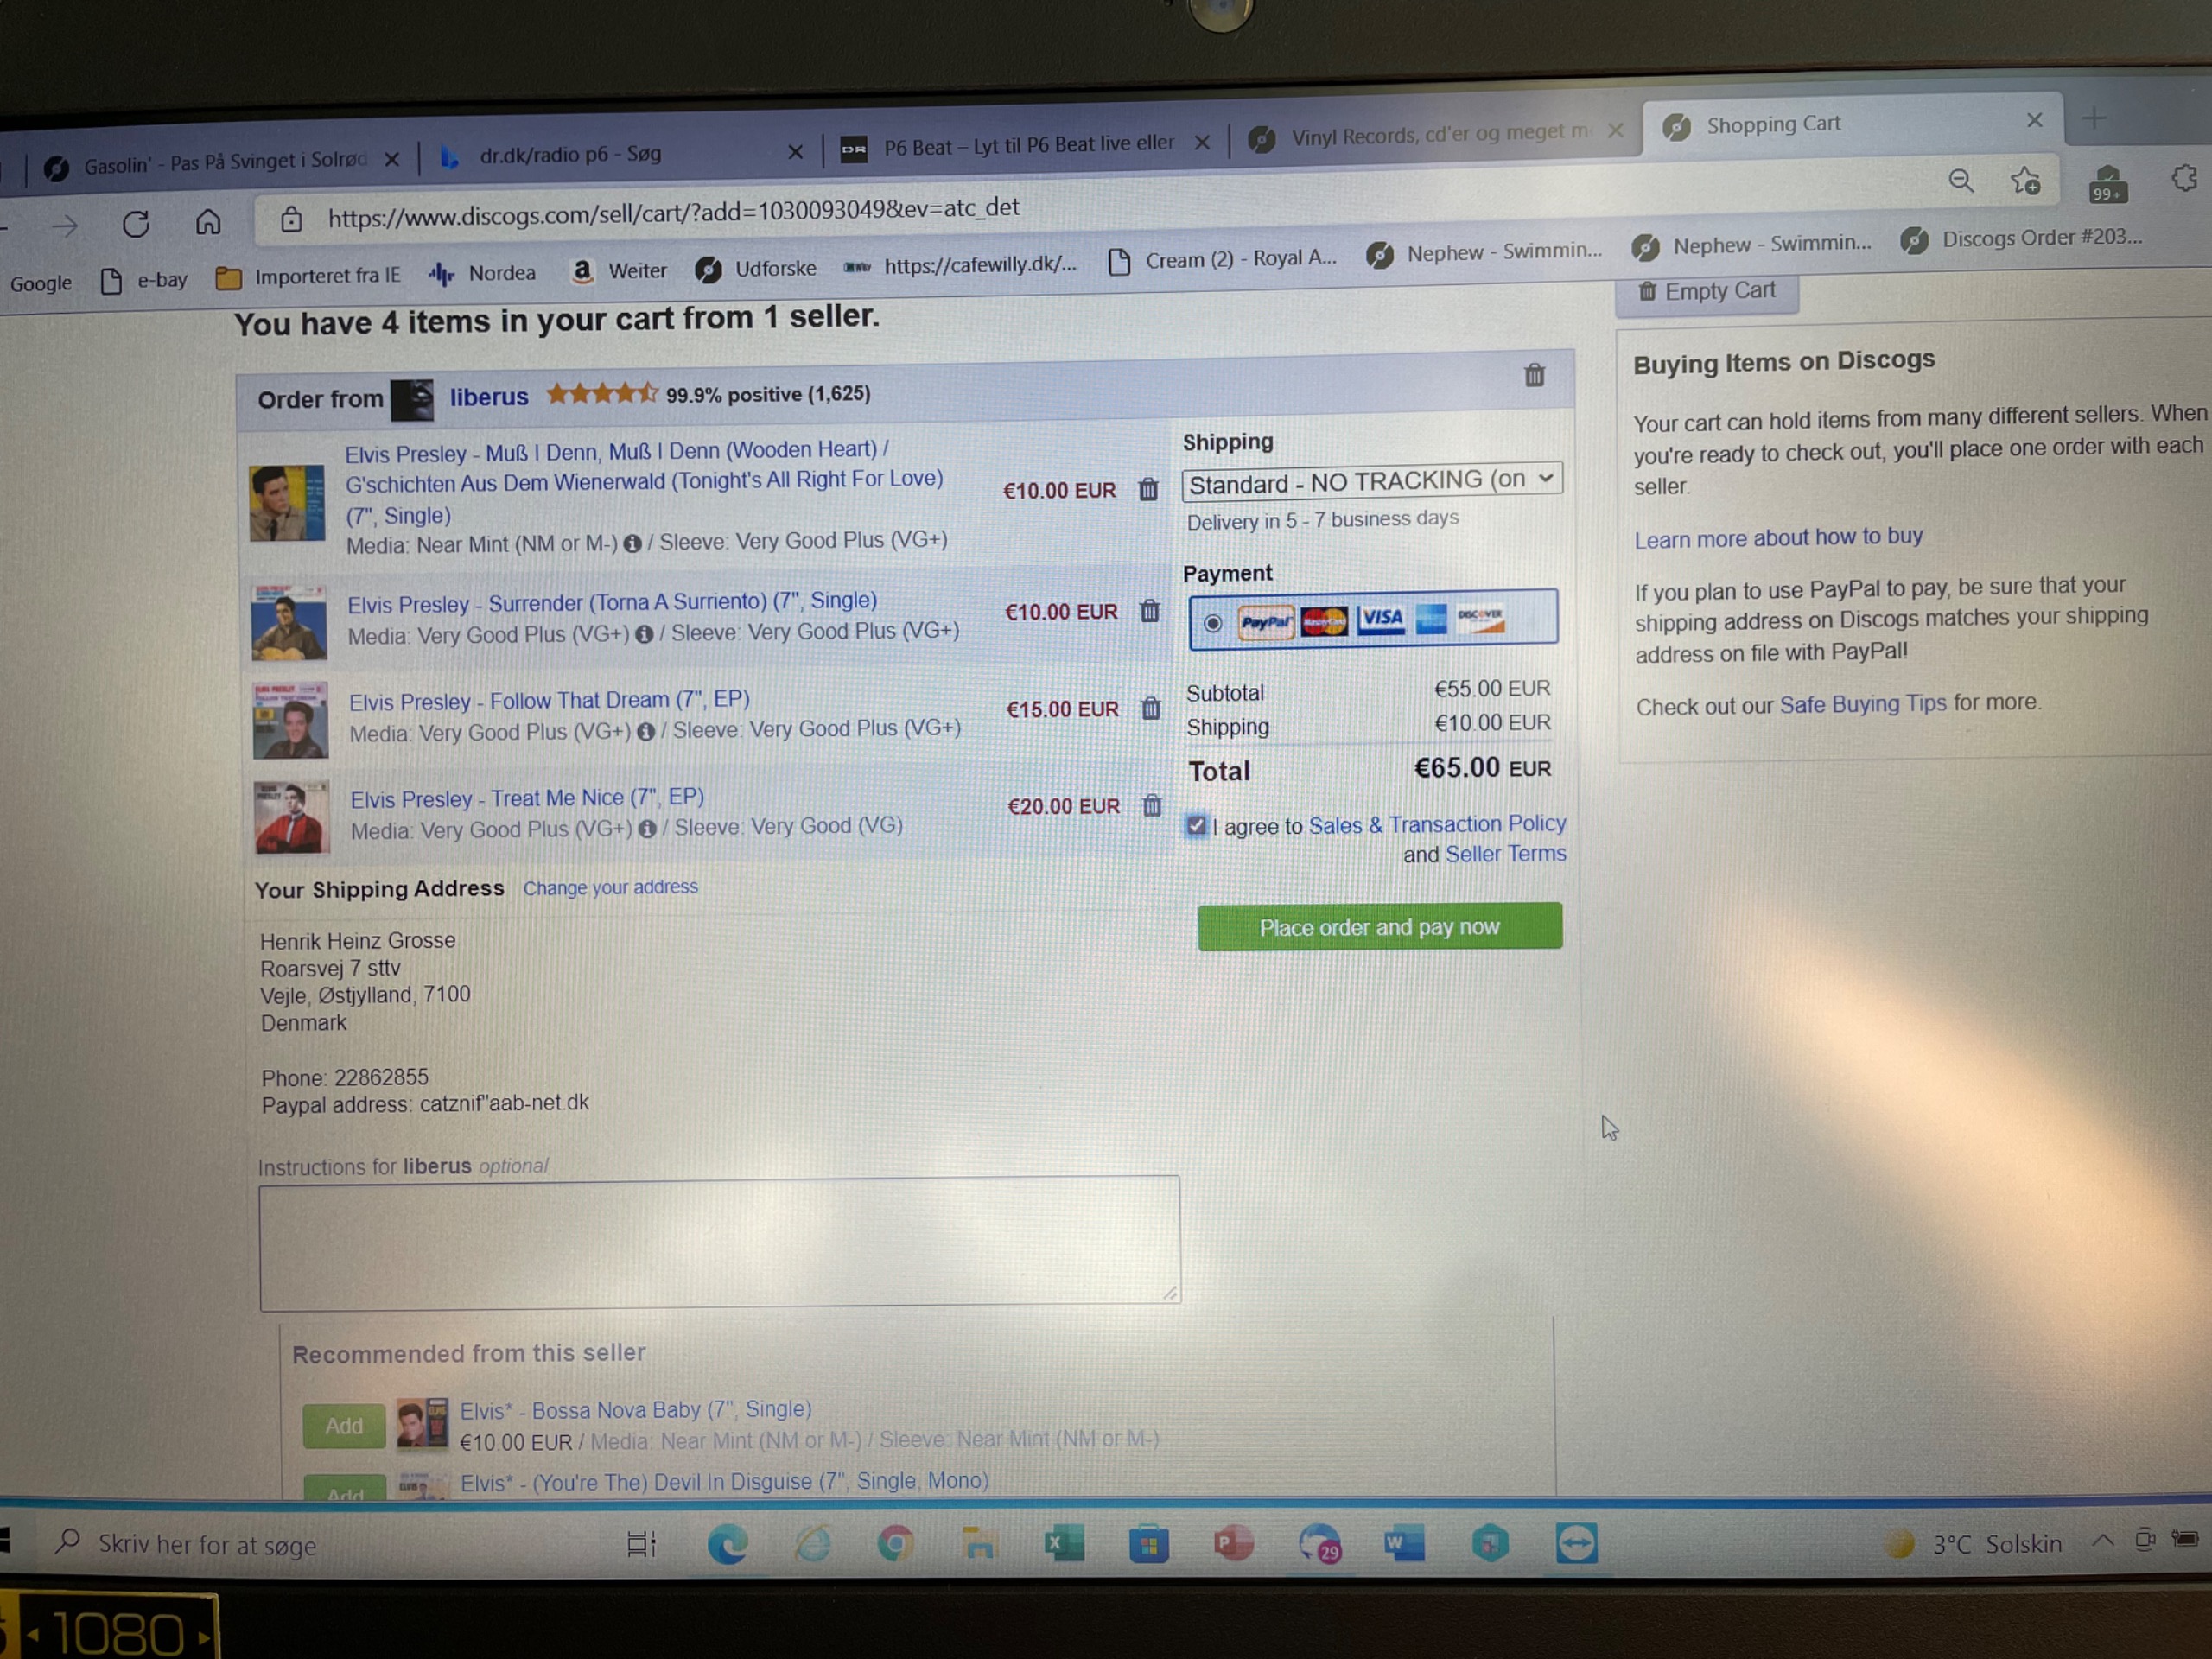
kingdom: Animalia
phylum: Arthropoda
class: Insecta
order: Coleoptera
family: Lucanidae
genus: Dorcus
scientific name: Dorcus parallelipipedus
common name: Bøghjort
